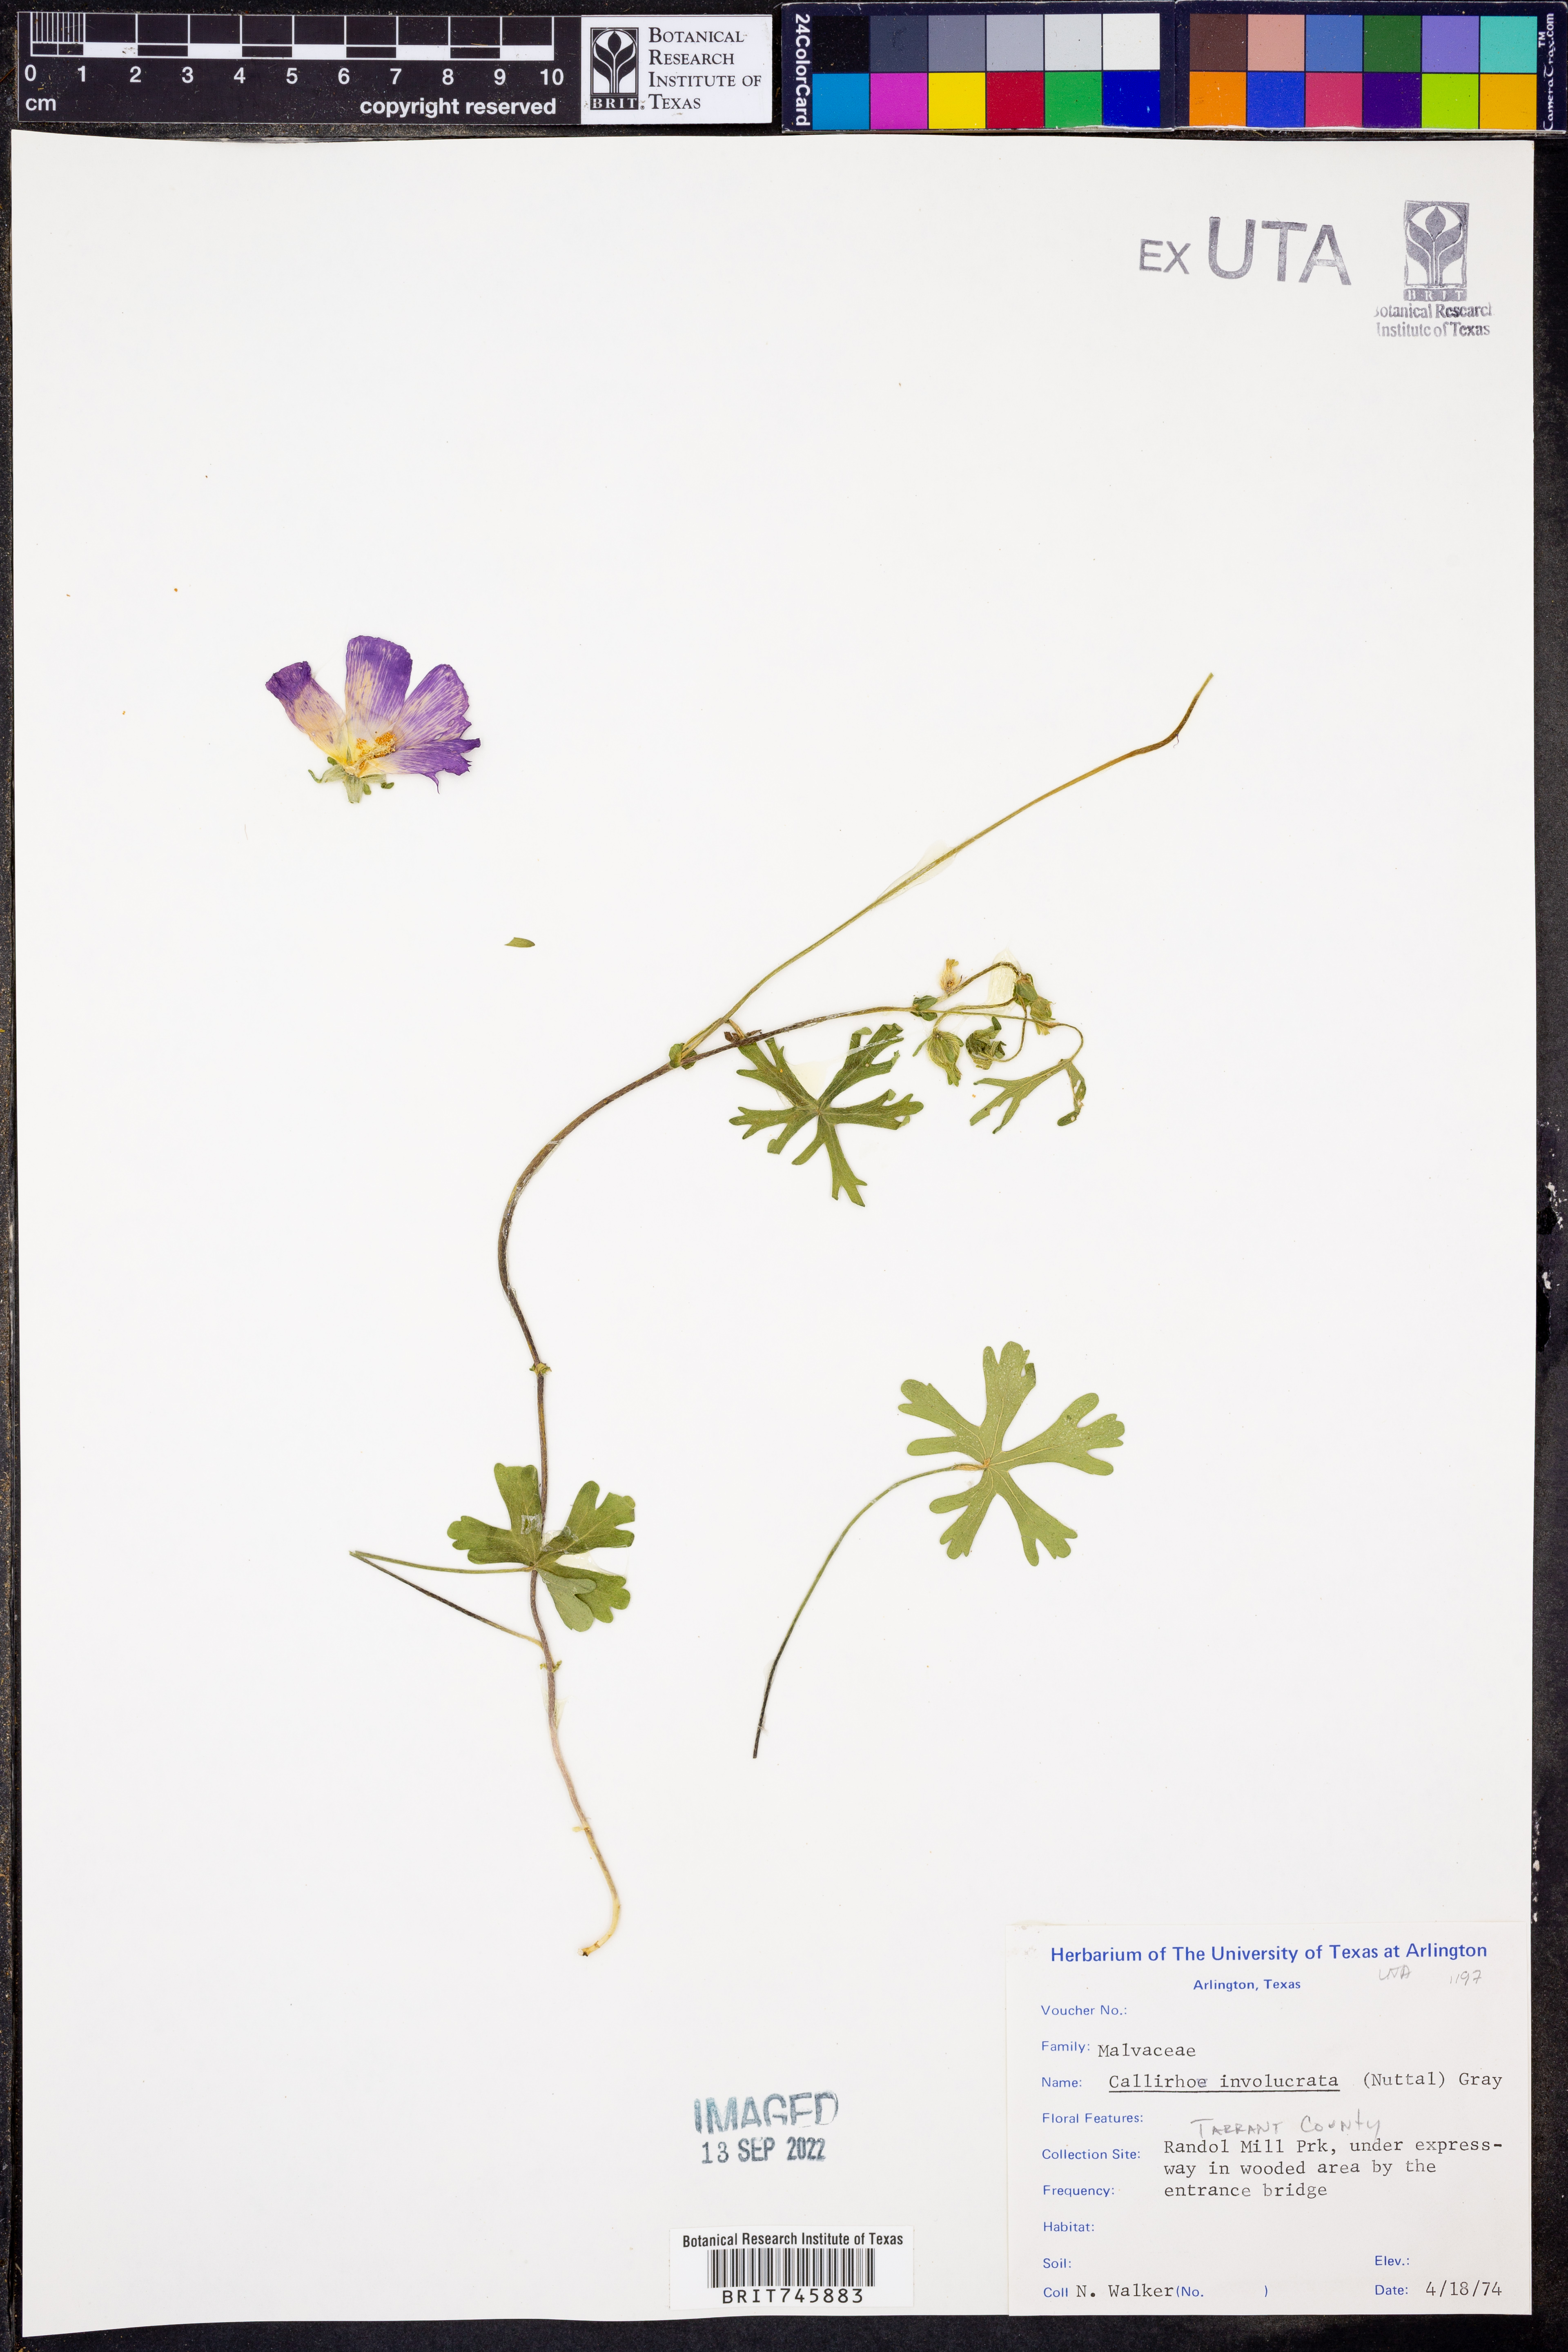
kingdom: Plantae
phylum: Tracheophyta
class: Magnoliopsida
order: Malvales
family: Malvaceae
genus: Callirhoe
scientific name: Callirhoe involucrata
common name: Purple poppy-mallow
